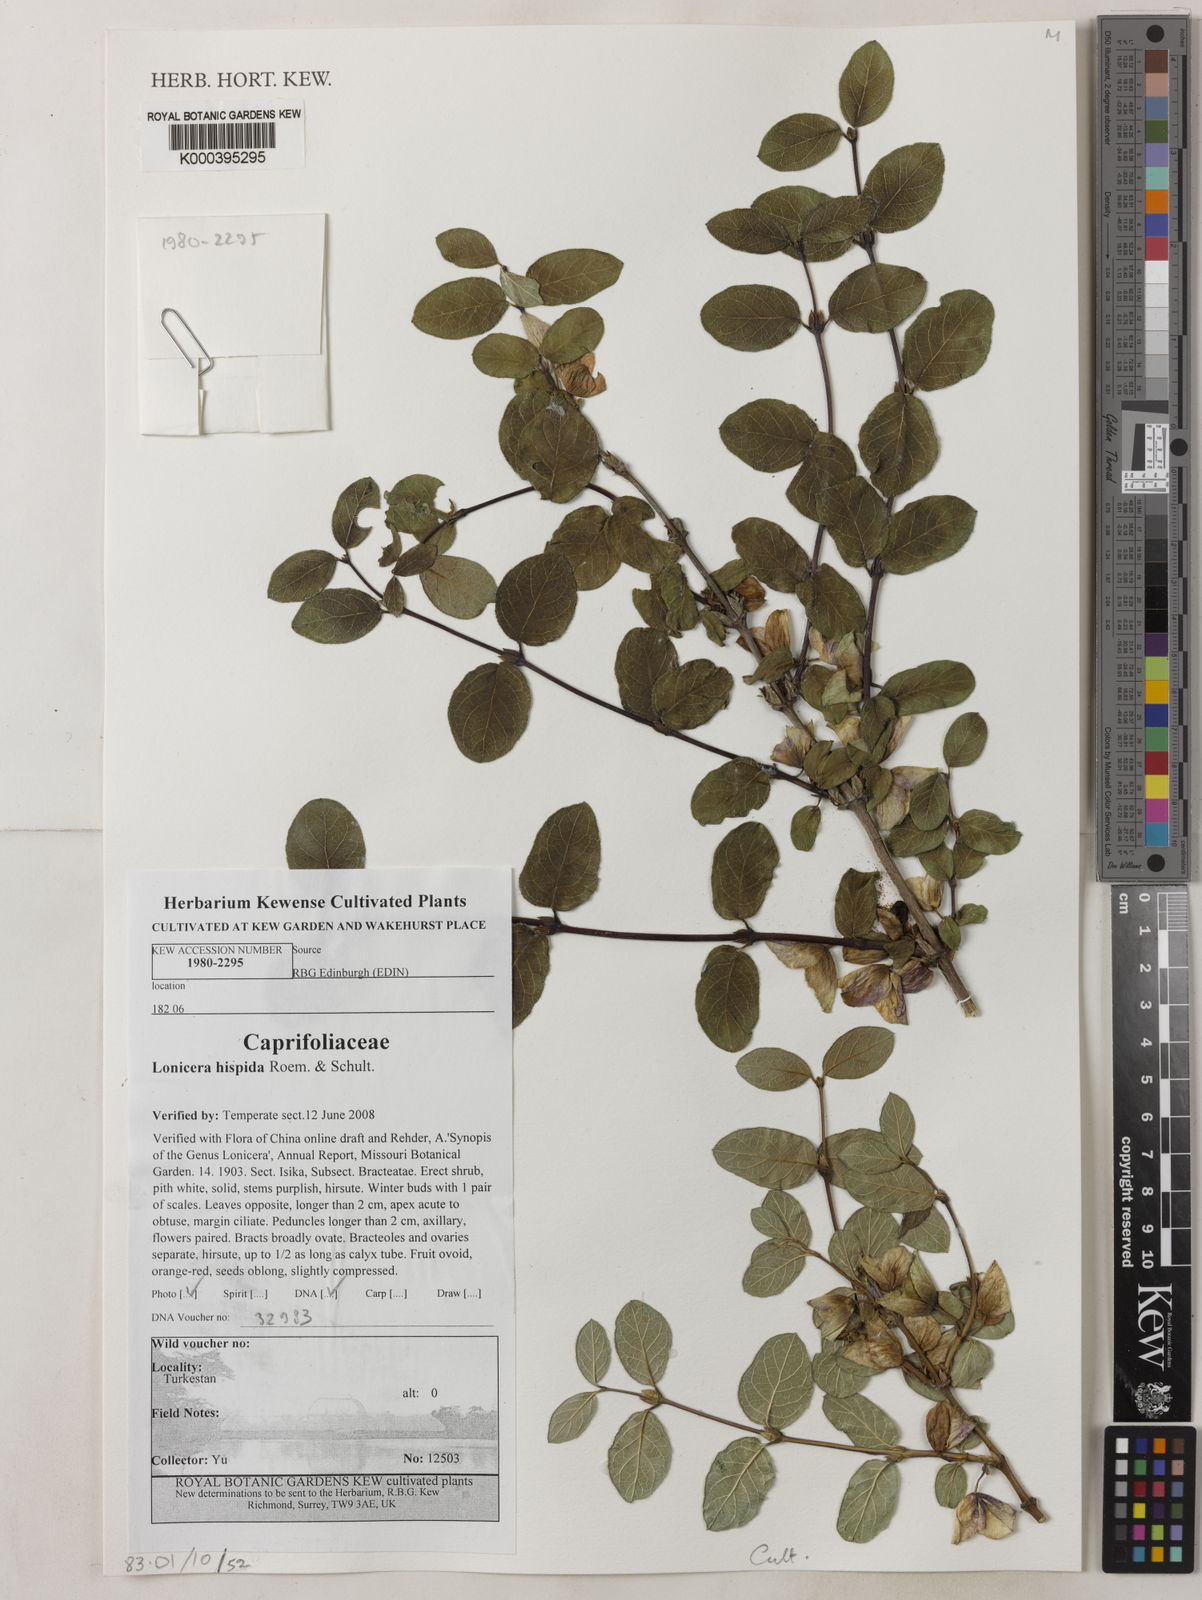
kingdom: Plantae
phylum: Tracheophyta
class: Magnoliopsida
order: Dipsacales
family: Caprifoliaceae
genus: Lonicera
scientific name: Lonicera hispida
